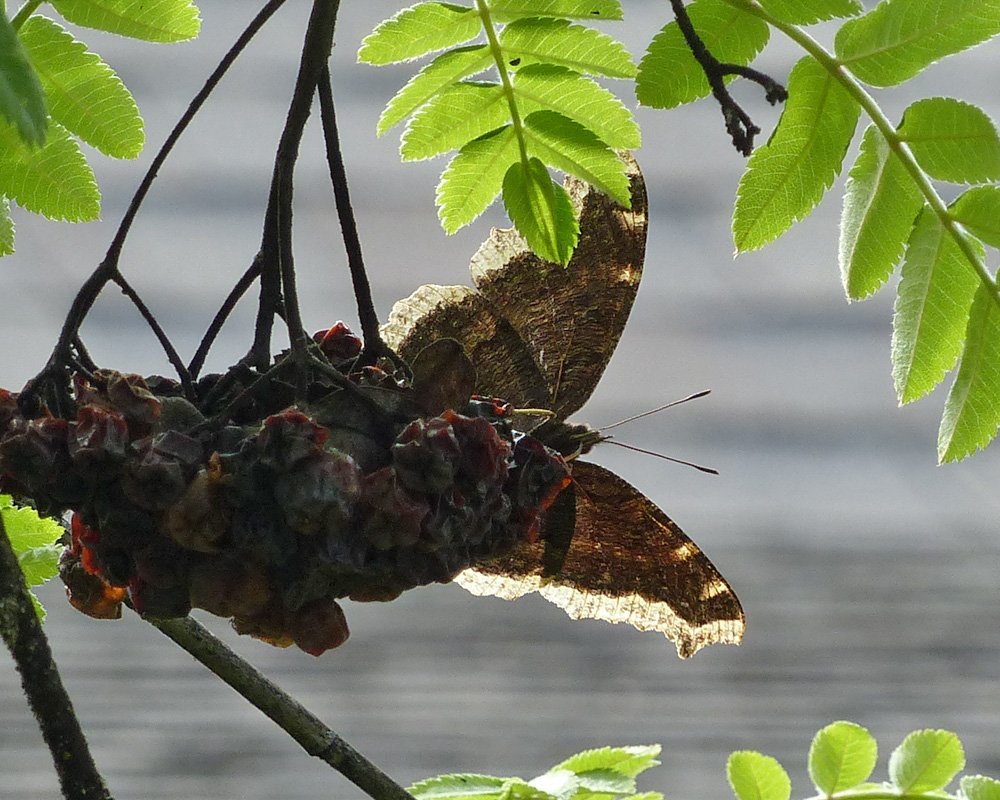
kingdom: Animalia
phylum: Arthropoda
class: Insecta
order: Lepidoptera
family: Nymphalidae
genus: Nymphalis
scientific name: Nymphalis antiopa
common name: Mourning Cloak
